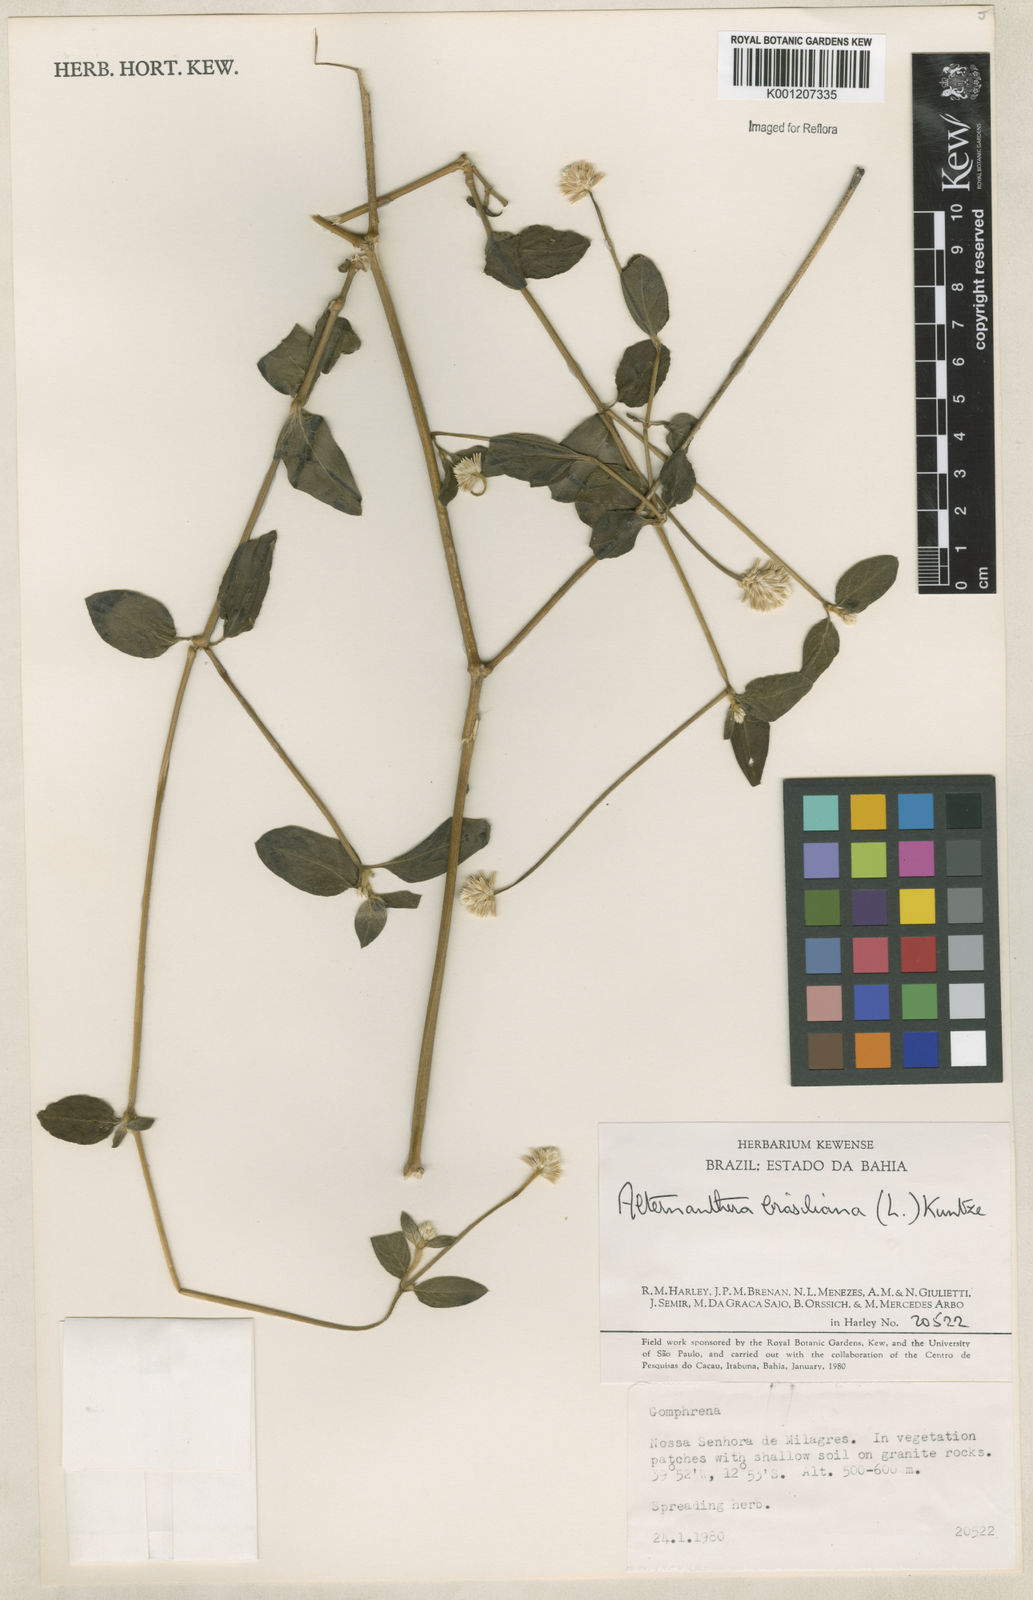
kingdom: Plantae
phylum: Tracheophyta
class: Magnoliopsida
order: Caryophyllales
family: Amaranthaceae
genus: Alternanthera
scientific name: Alternanthera brasiliana
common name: Brazilian joyweed
